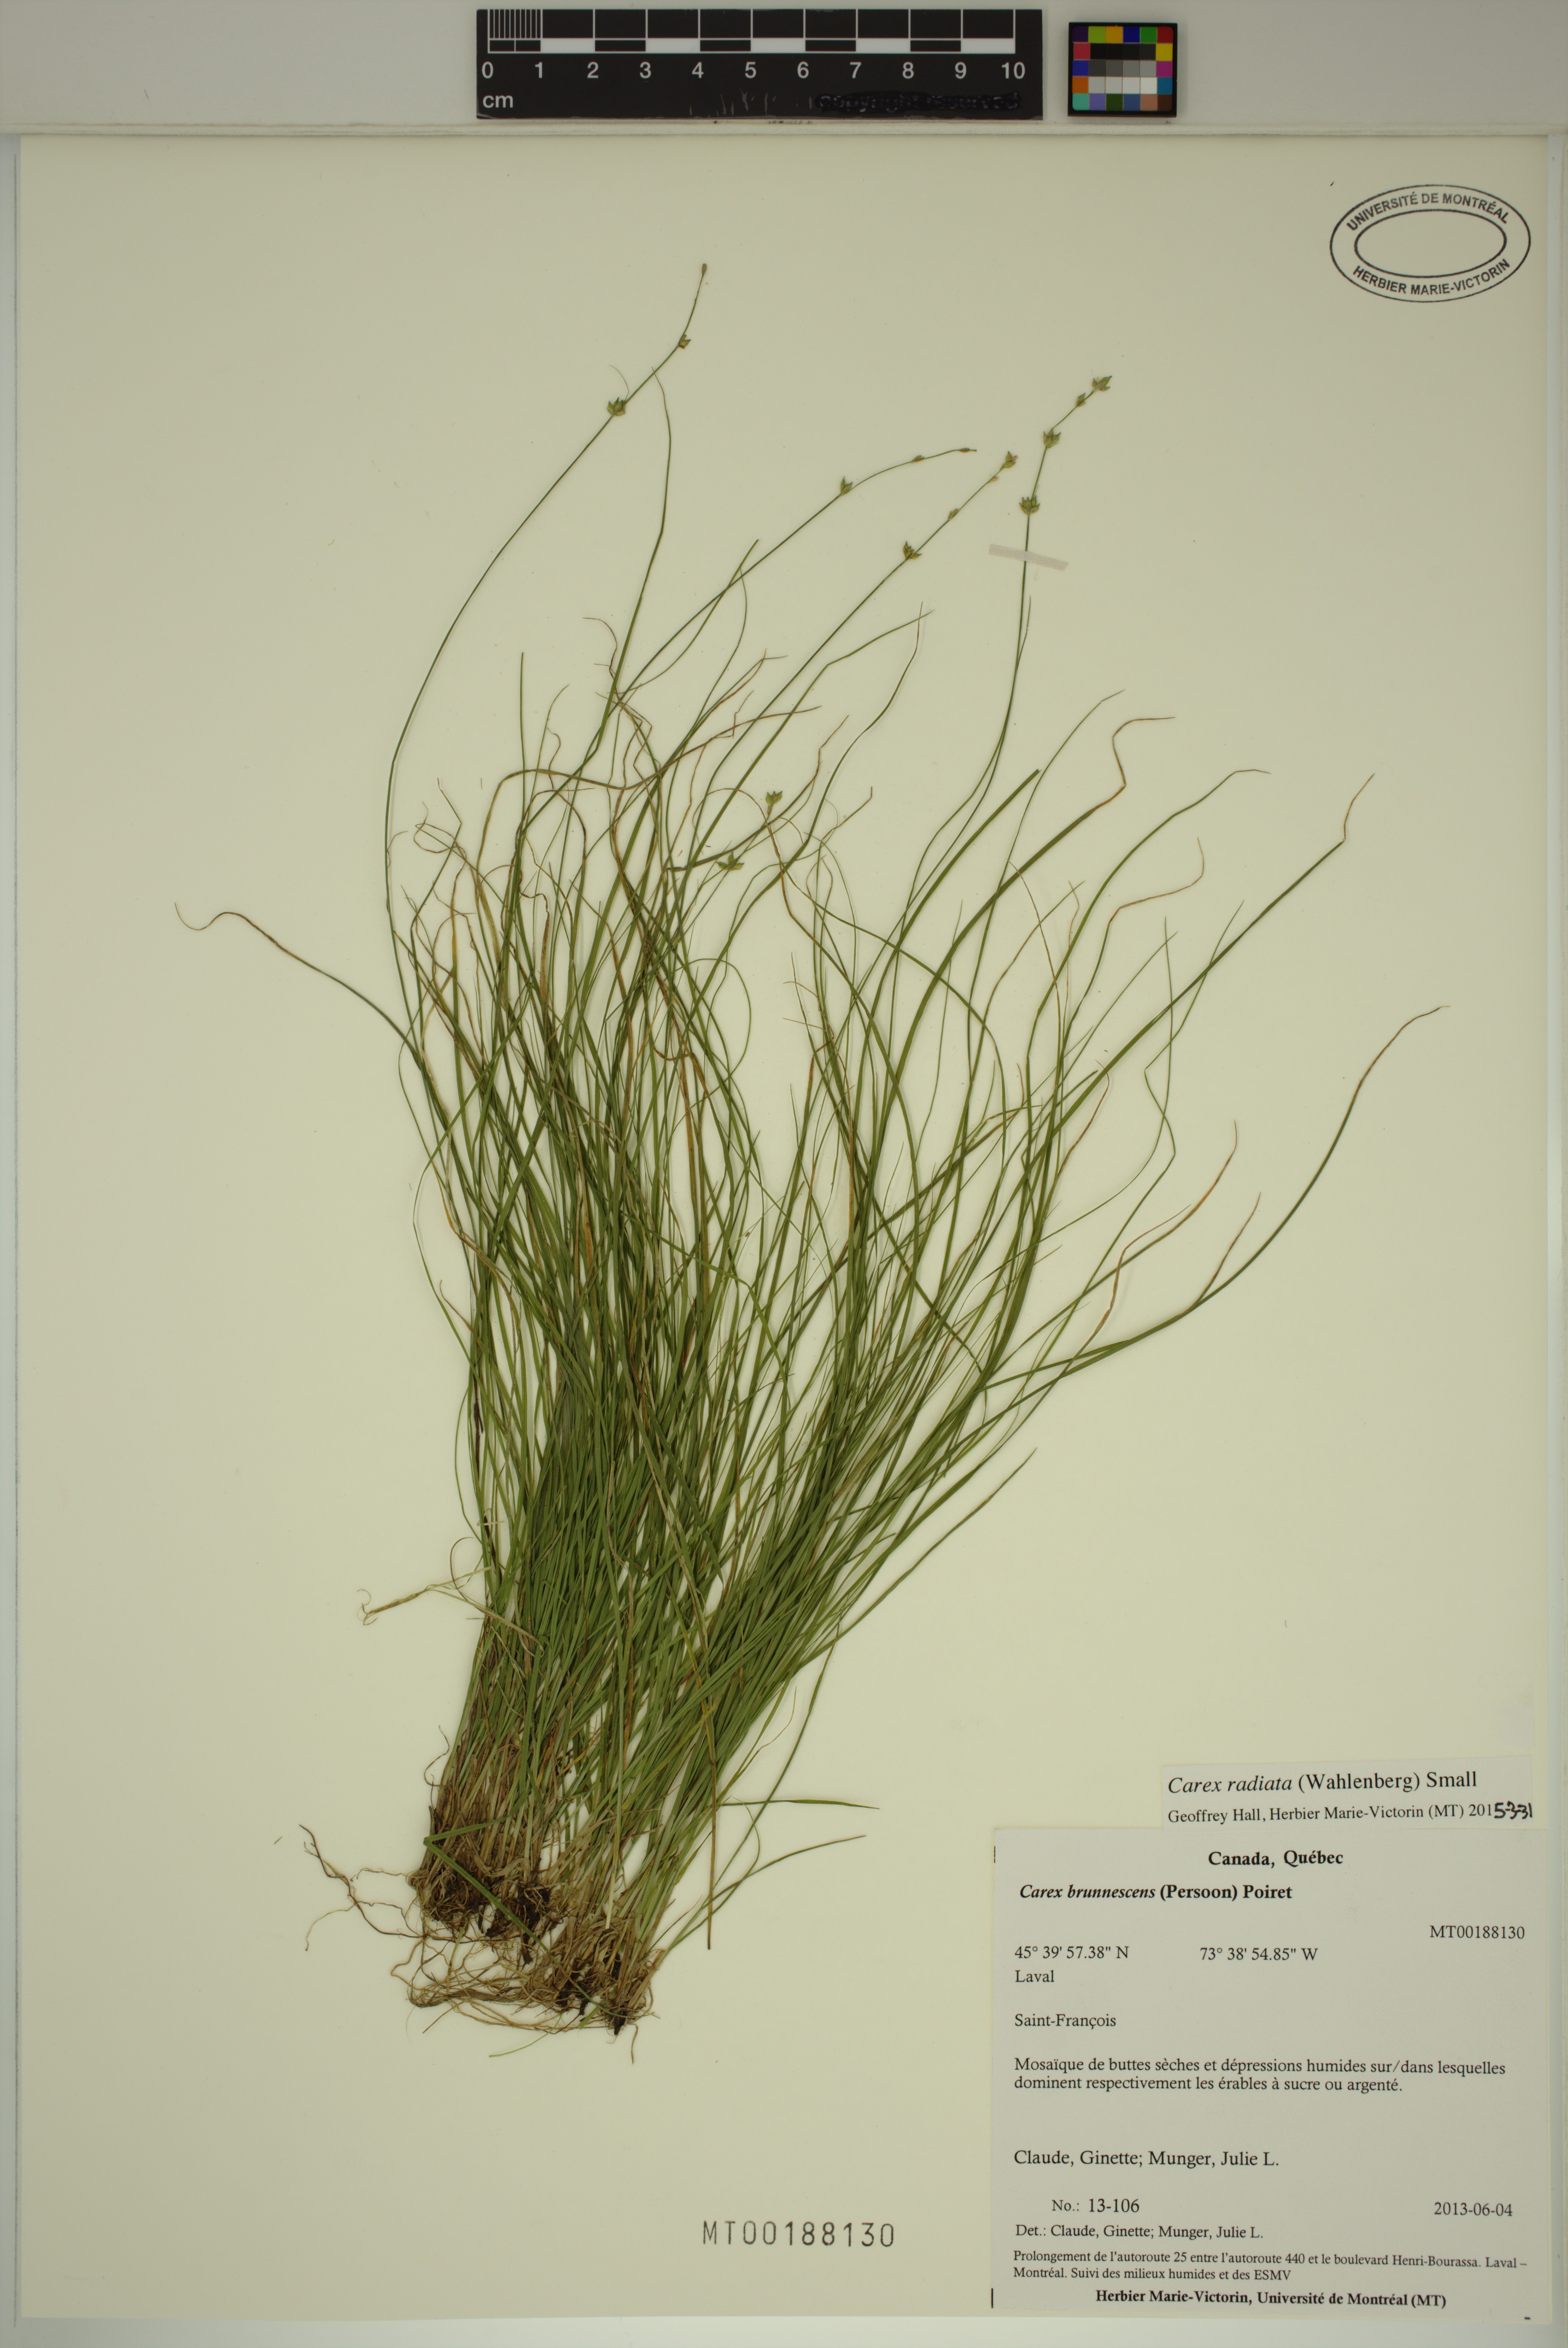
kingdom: Plantae
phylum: Tracheophyta
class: Liliopsida
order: Poales
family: Cyperaceae
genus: Carex
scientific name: Carex radiata
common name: Eastern star sedge
